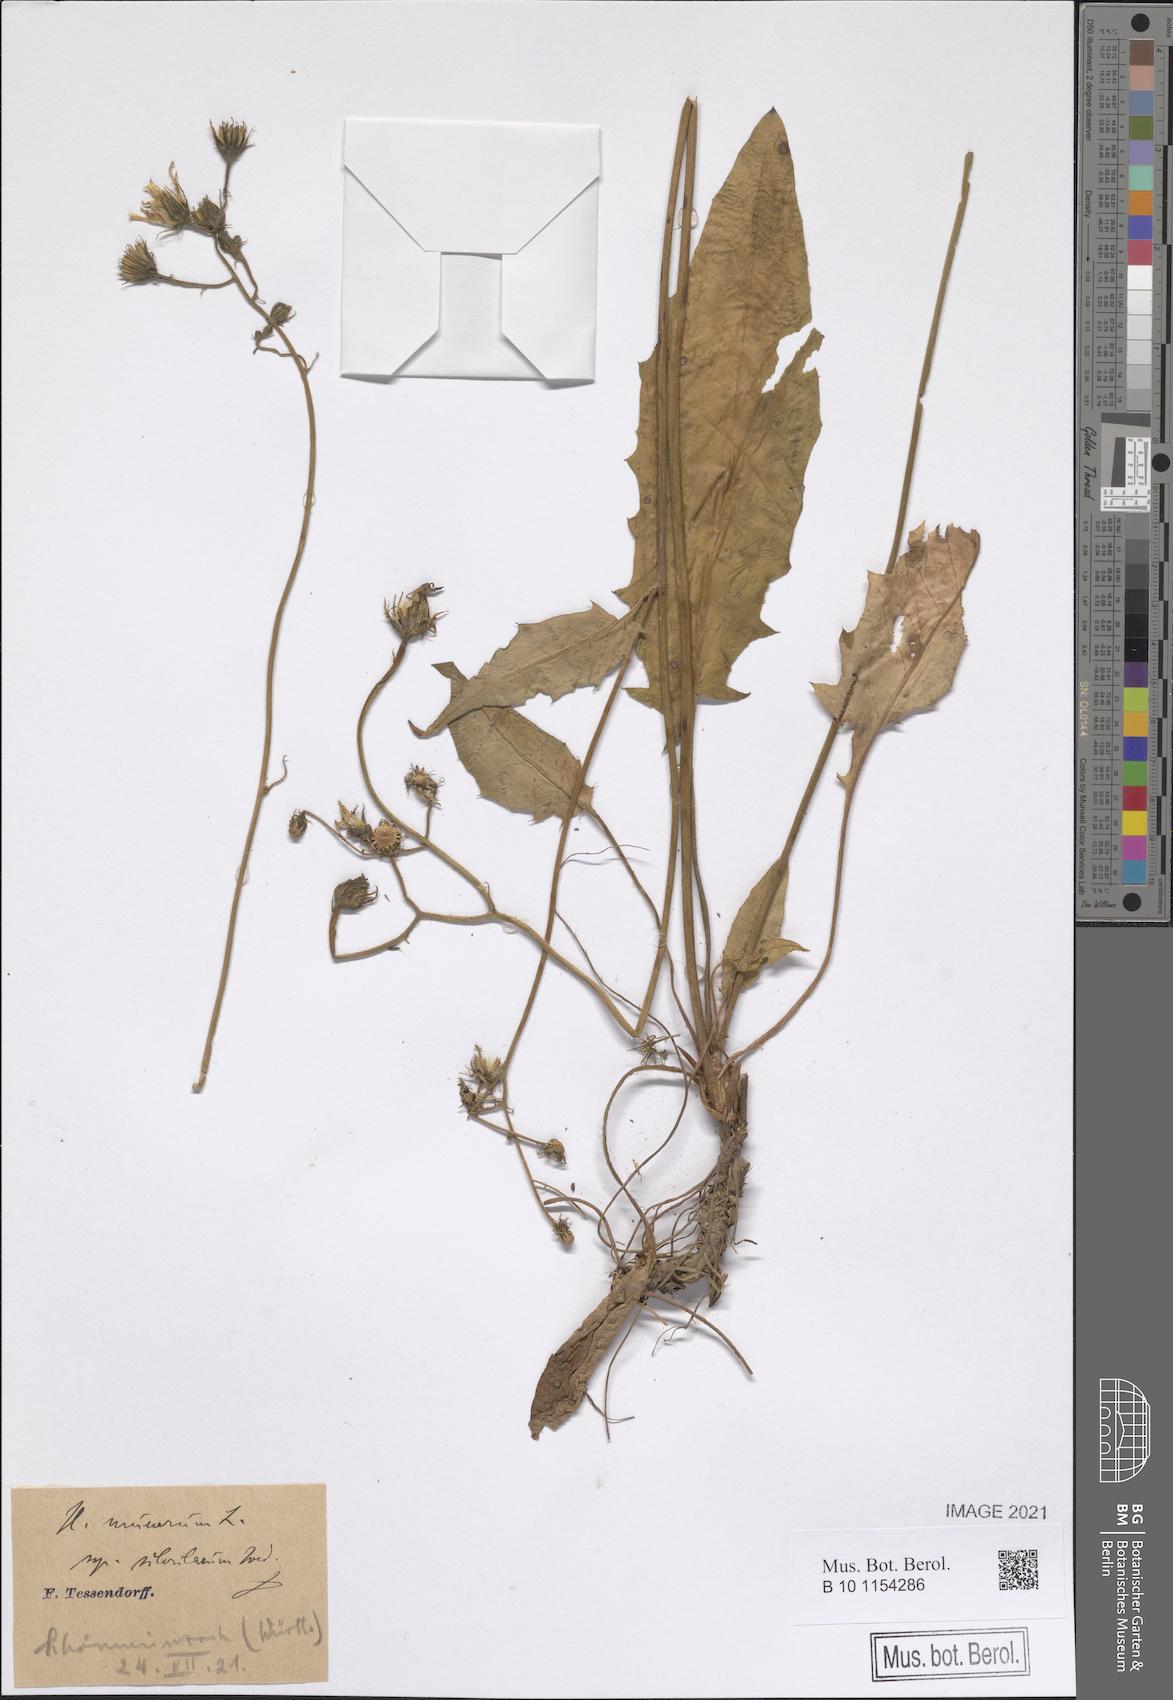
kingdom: Plantae
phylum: Tracheophyta
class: Magnoliopsida
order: Asterales
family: Asteraceae
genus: Hieracium
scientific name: Hieracium murorum
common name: Wall hawkweed
